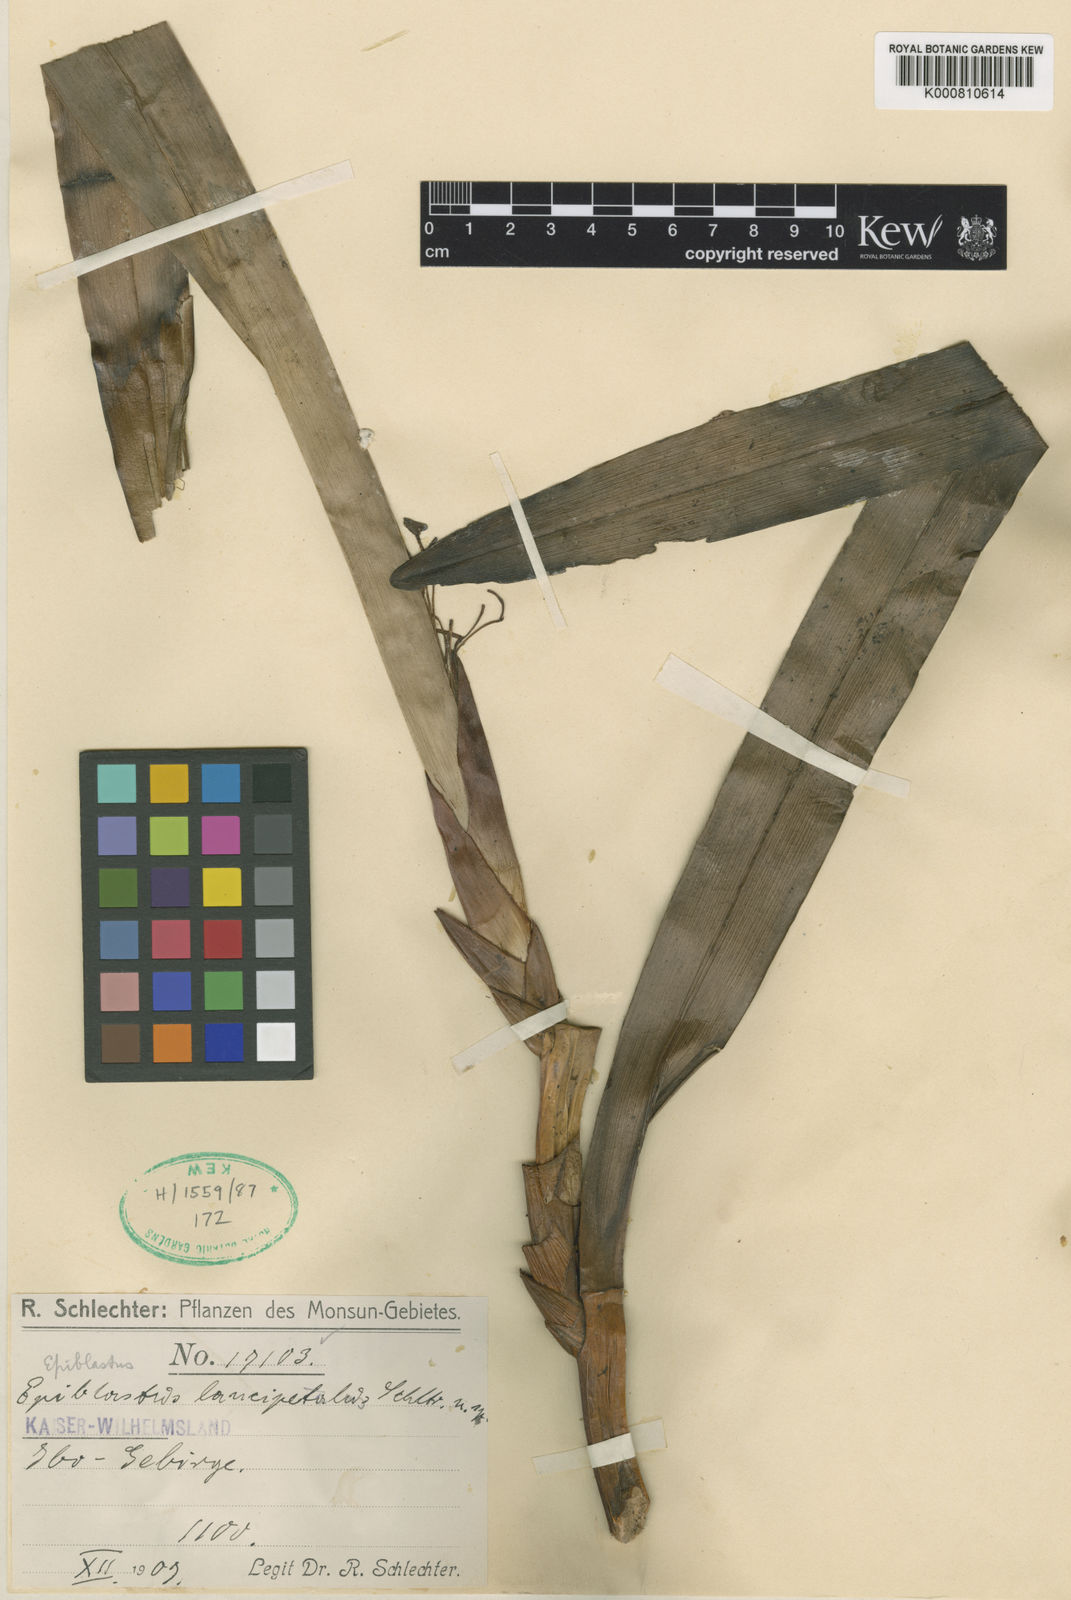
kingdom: Plantae
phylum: Tracheophyta
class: Liliopsida
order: Asparagales
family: Orchidaceae
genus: Epiblastus
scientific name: Epiblastus lancipetalus
